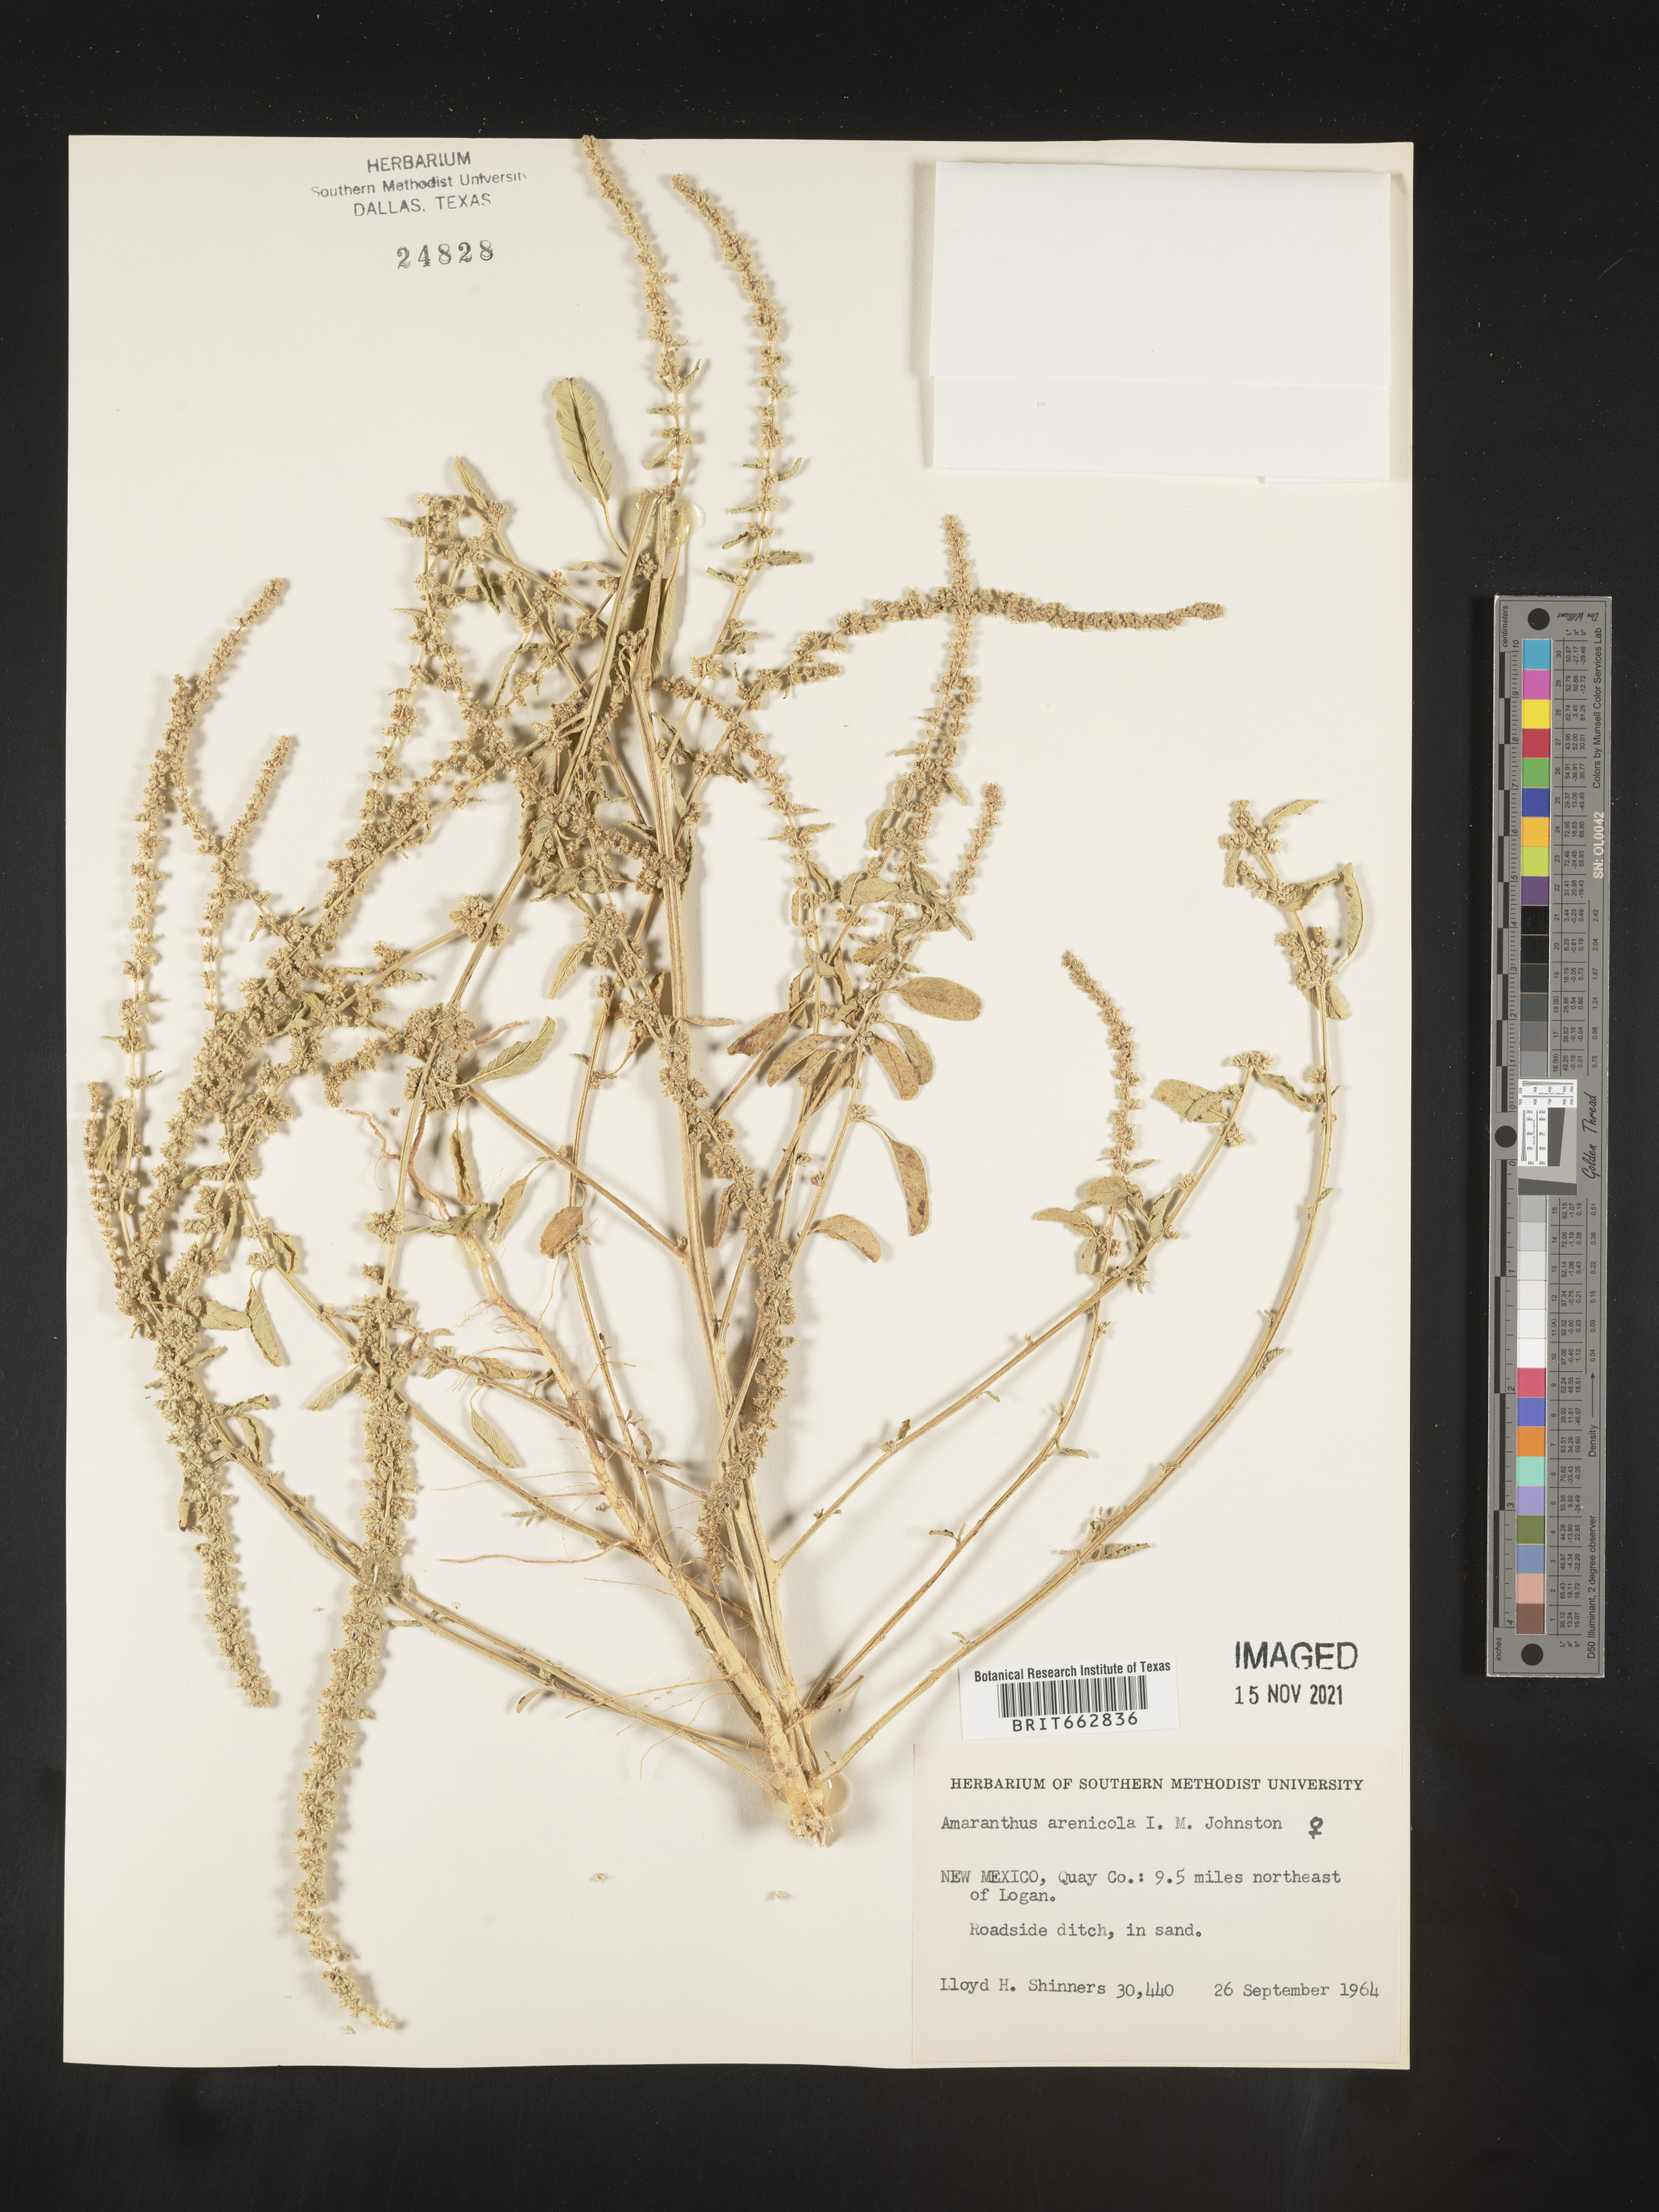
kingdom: Plantae
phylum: Tracheophyta
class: Magnoliopsida
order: Caryophyllales
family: Amaranthaceae
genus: Amaranthus
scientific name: Amaranthus arenicola
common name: Sandhills amaranth
